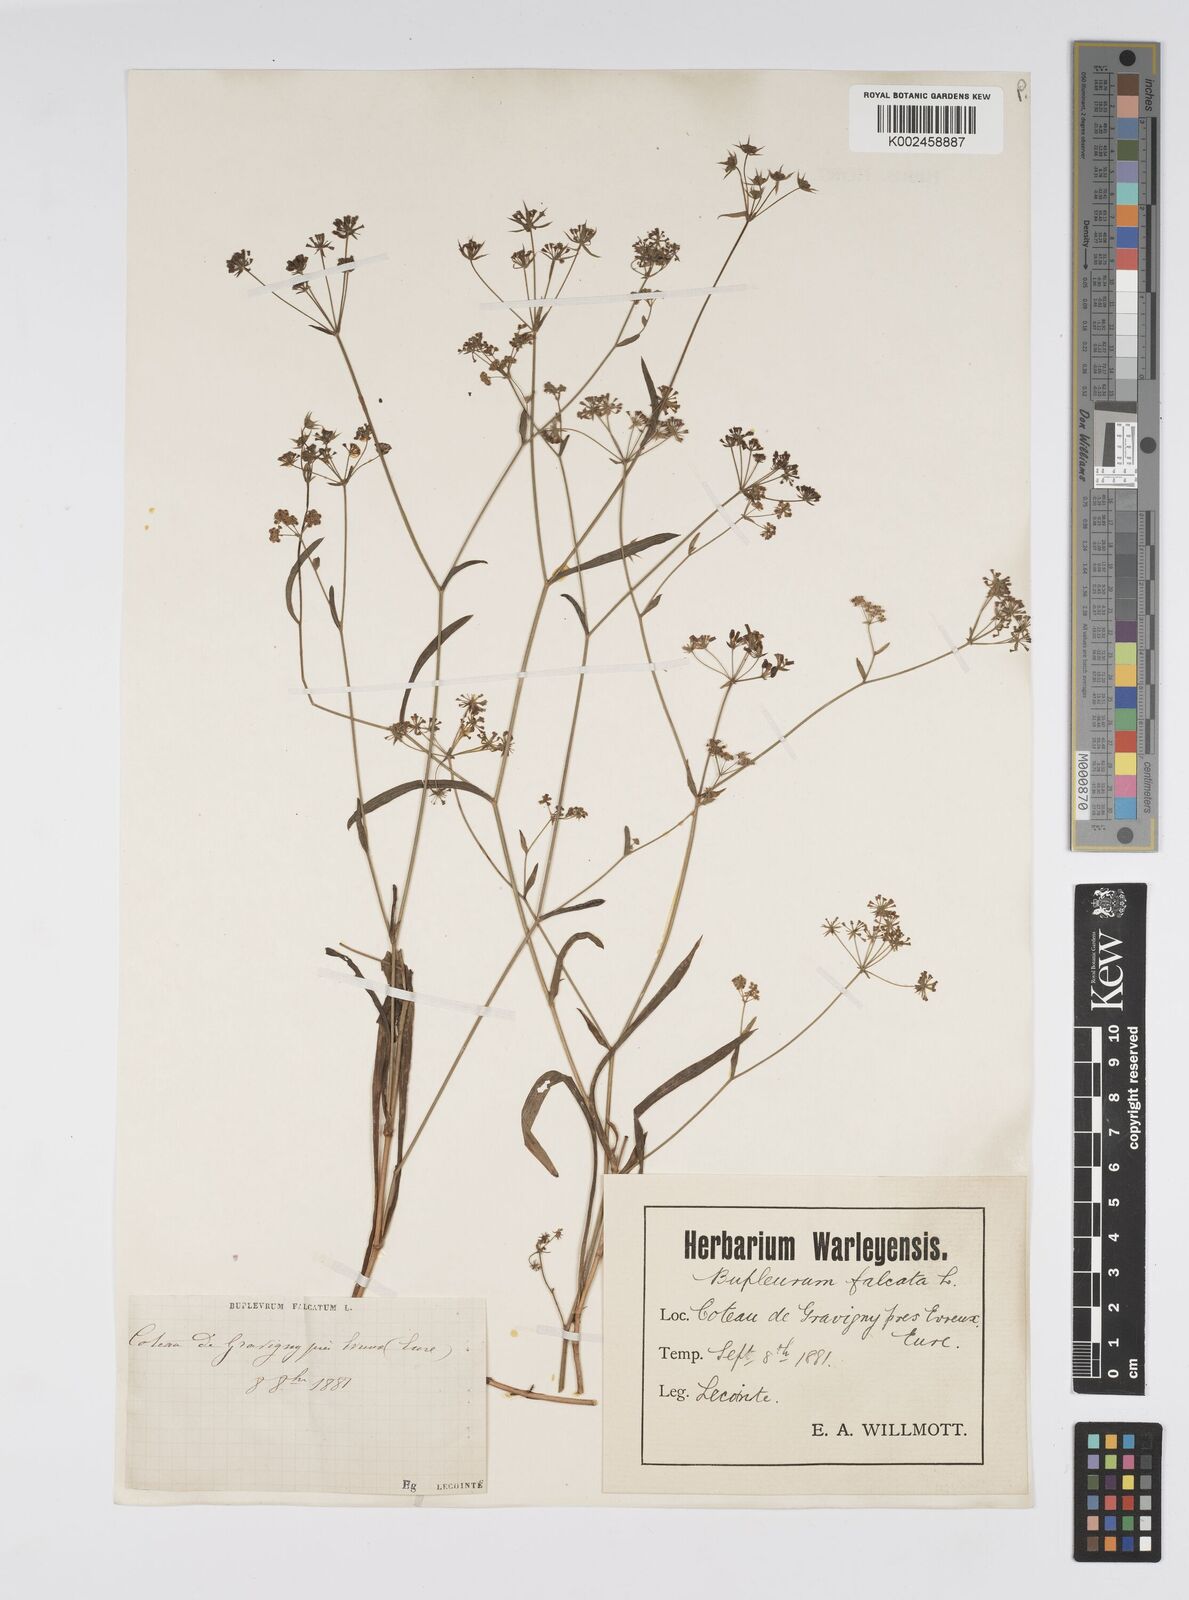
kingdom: Plantae
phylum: Tracheophyta
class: Magnoliopsida
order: Apiales
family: Apiaceae
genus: Bupleurum
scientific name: Bupleurum falcatum
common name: Sickle-leaved hare's-ear
